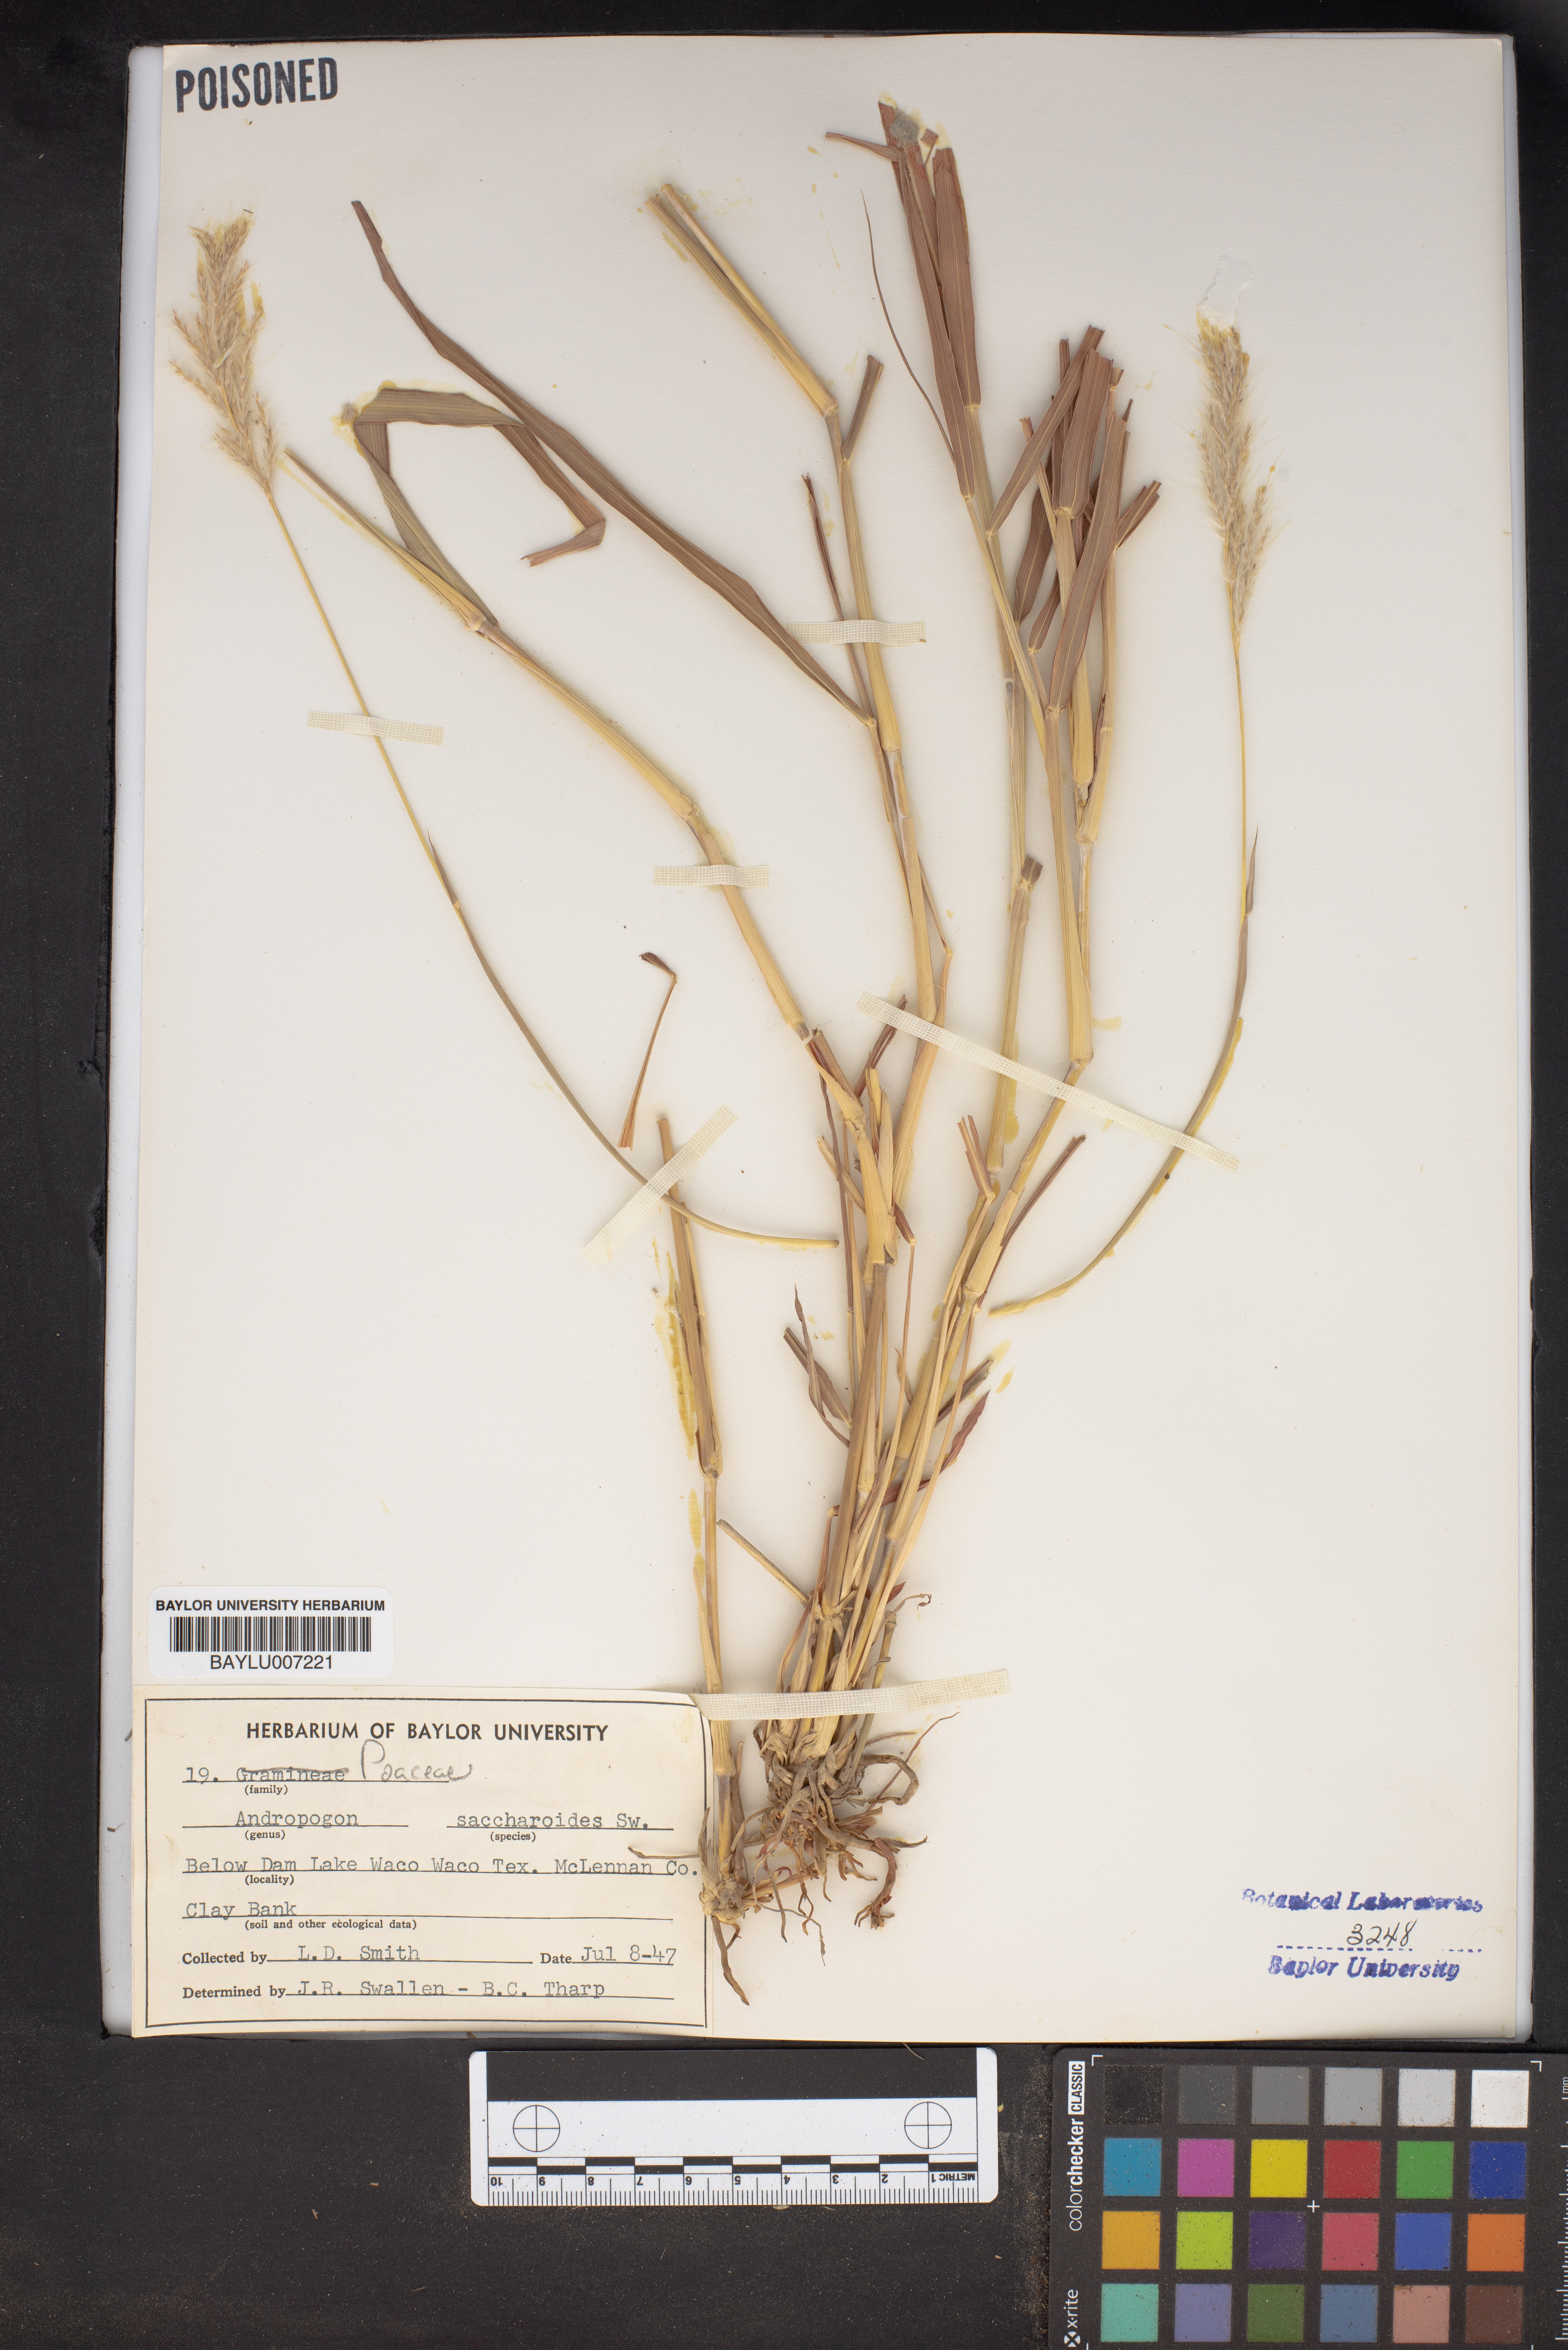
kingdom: Plantae
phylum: Tracheophyta
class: Liliopsida
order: Poales
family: Poaceae
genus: Bothriochloa
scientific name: Bothriochloa saccharoides
